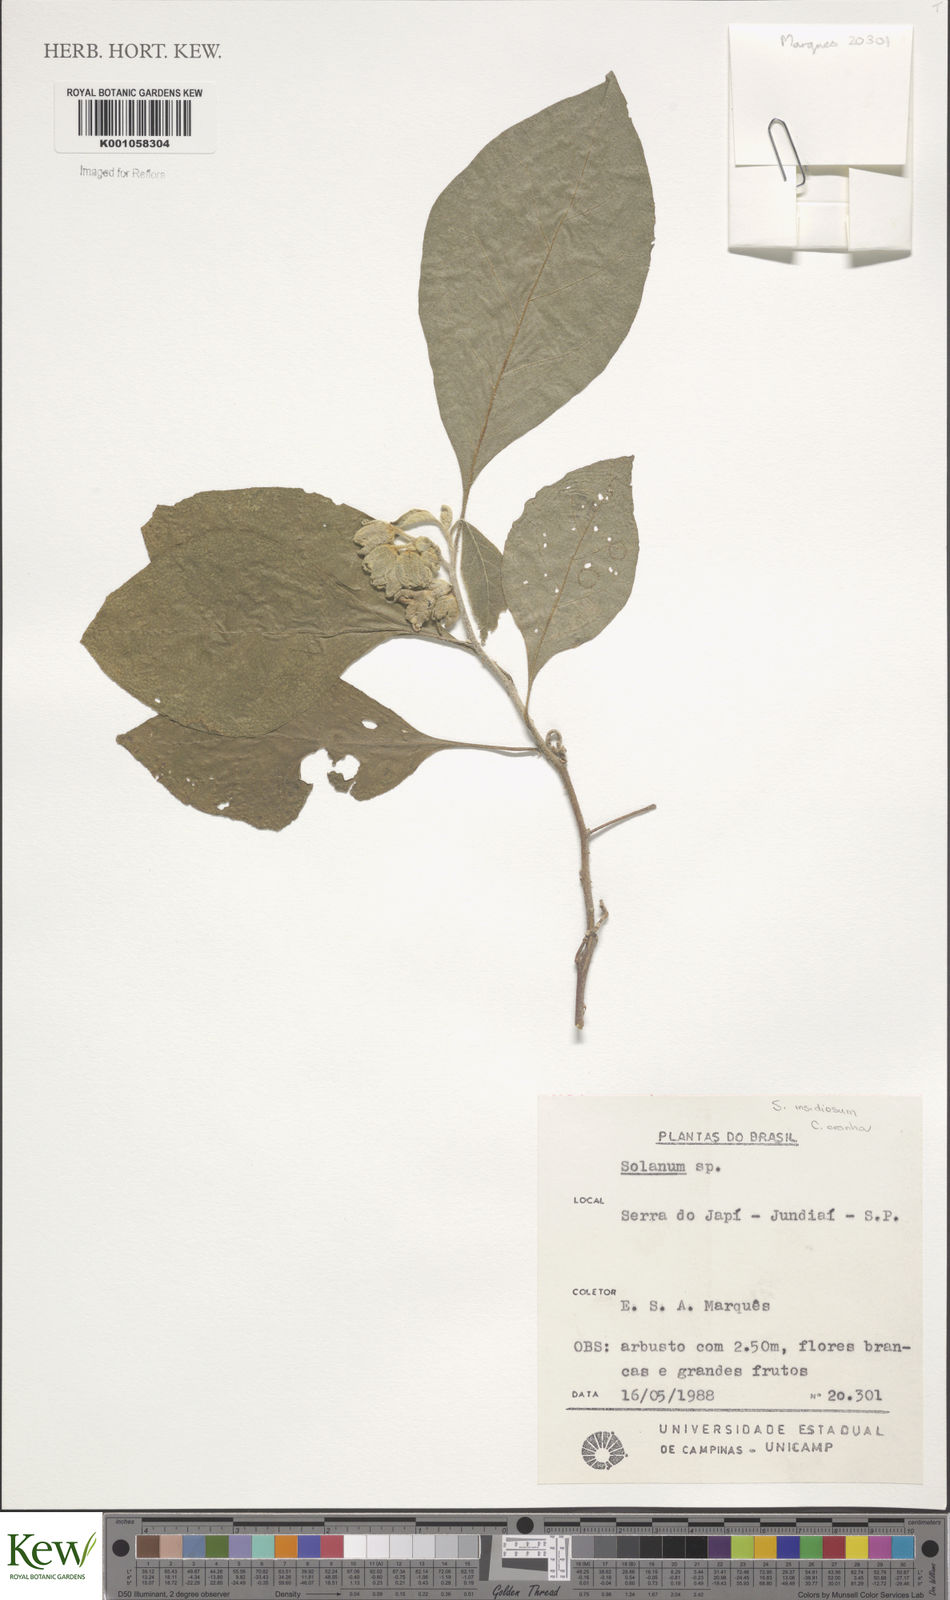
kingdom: Plantae
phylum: Tracheophyta
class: Magnoliopsida
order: Solanales
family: Solanaceae
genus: Solanum
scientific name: Solanum insidiosum
